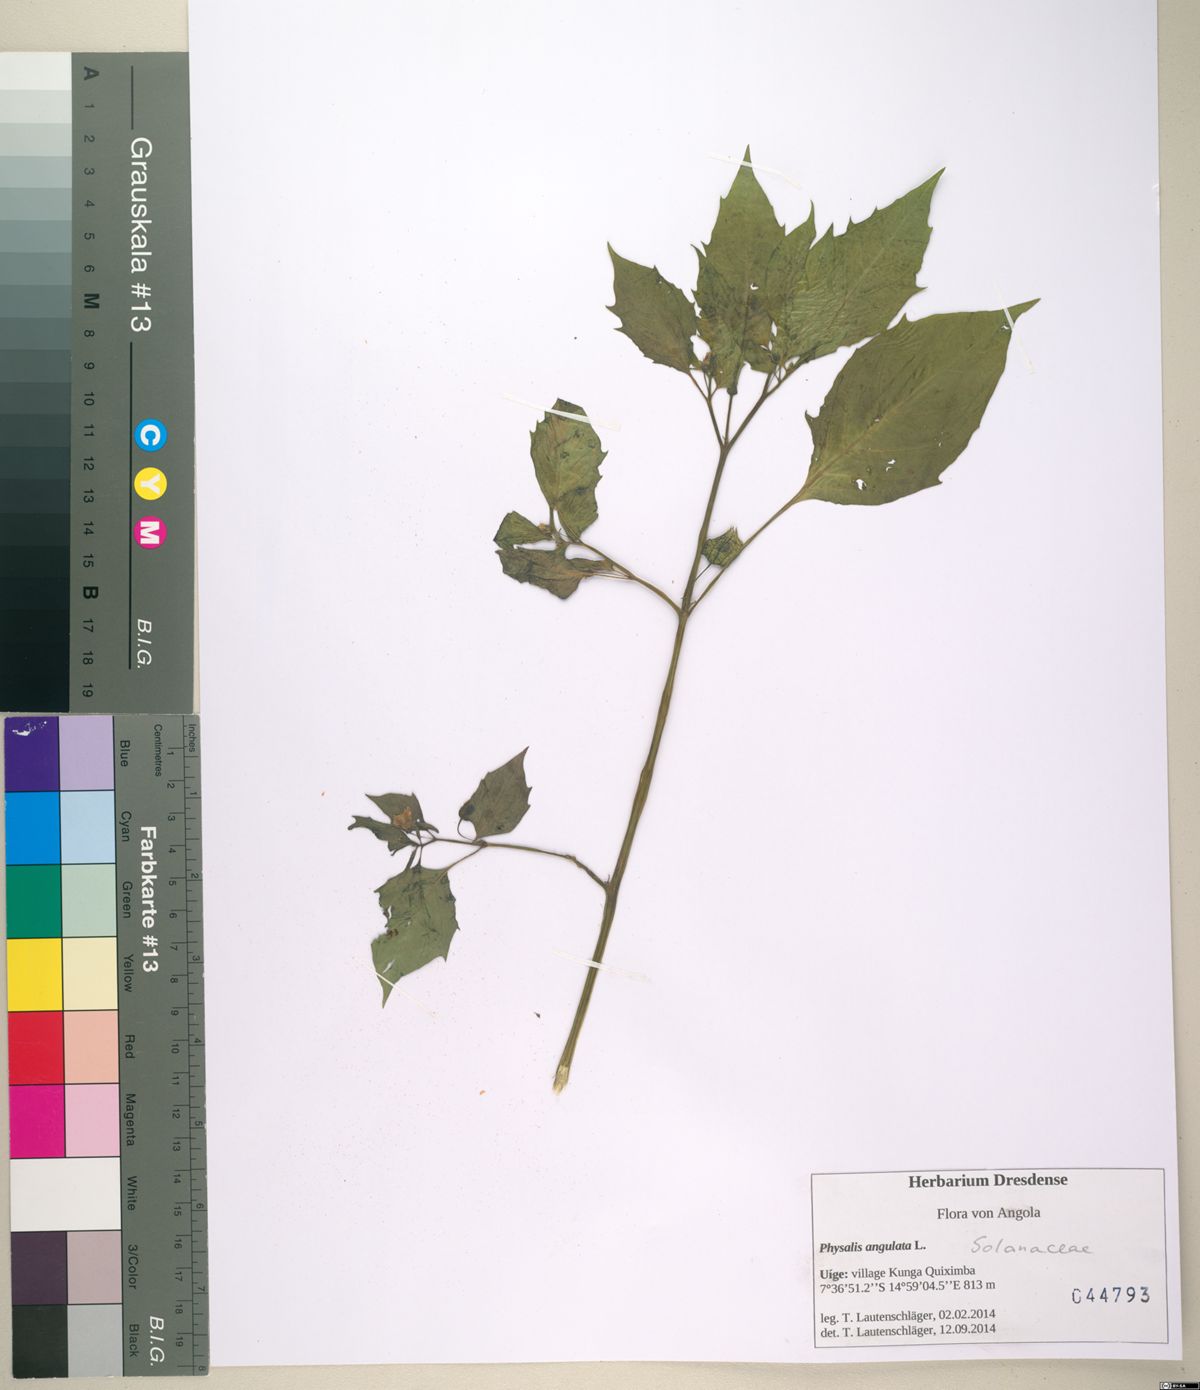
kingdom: Plantae
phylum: Tracheophyta
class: Magnoliopsida
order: Solanales
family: Solanaceae
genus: Physalis
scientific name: Physalis angulata
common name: Angular winter-cherry
